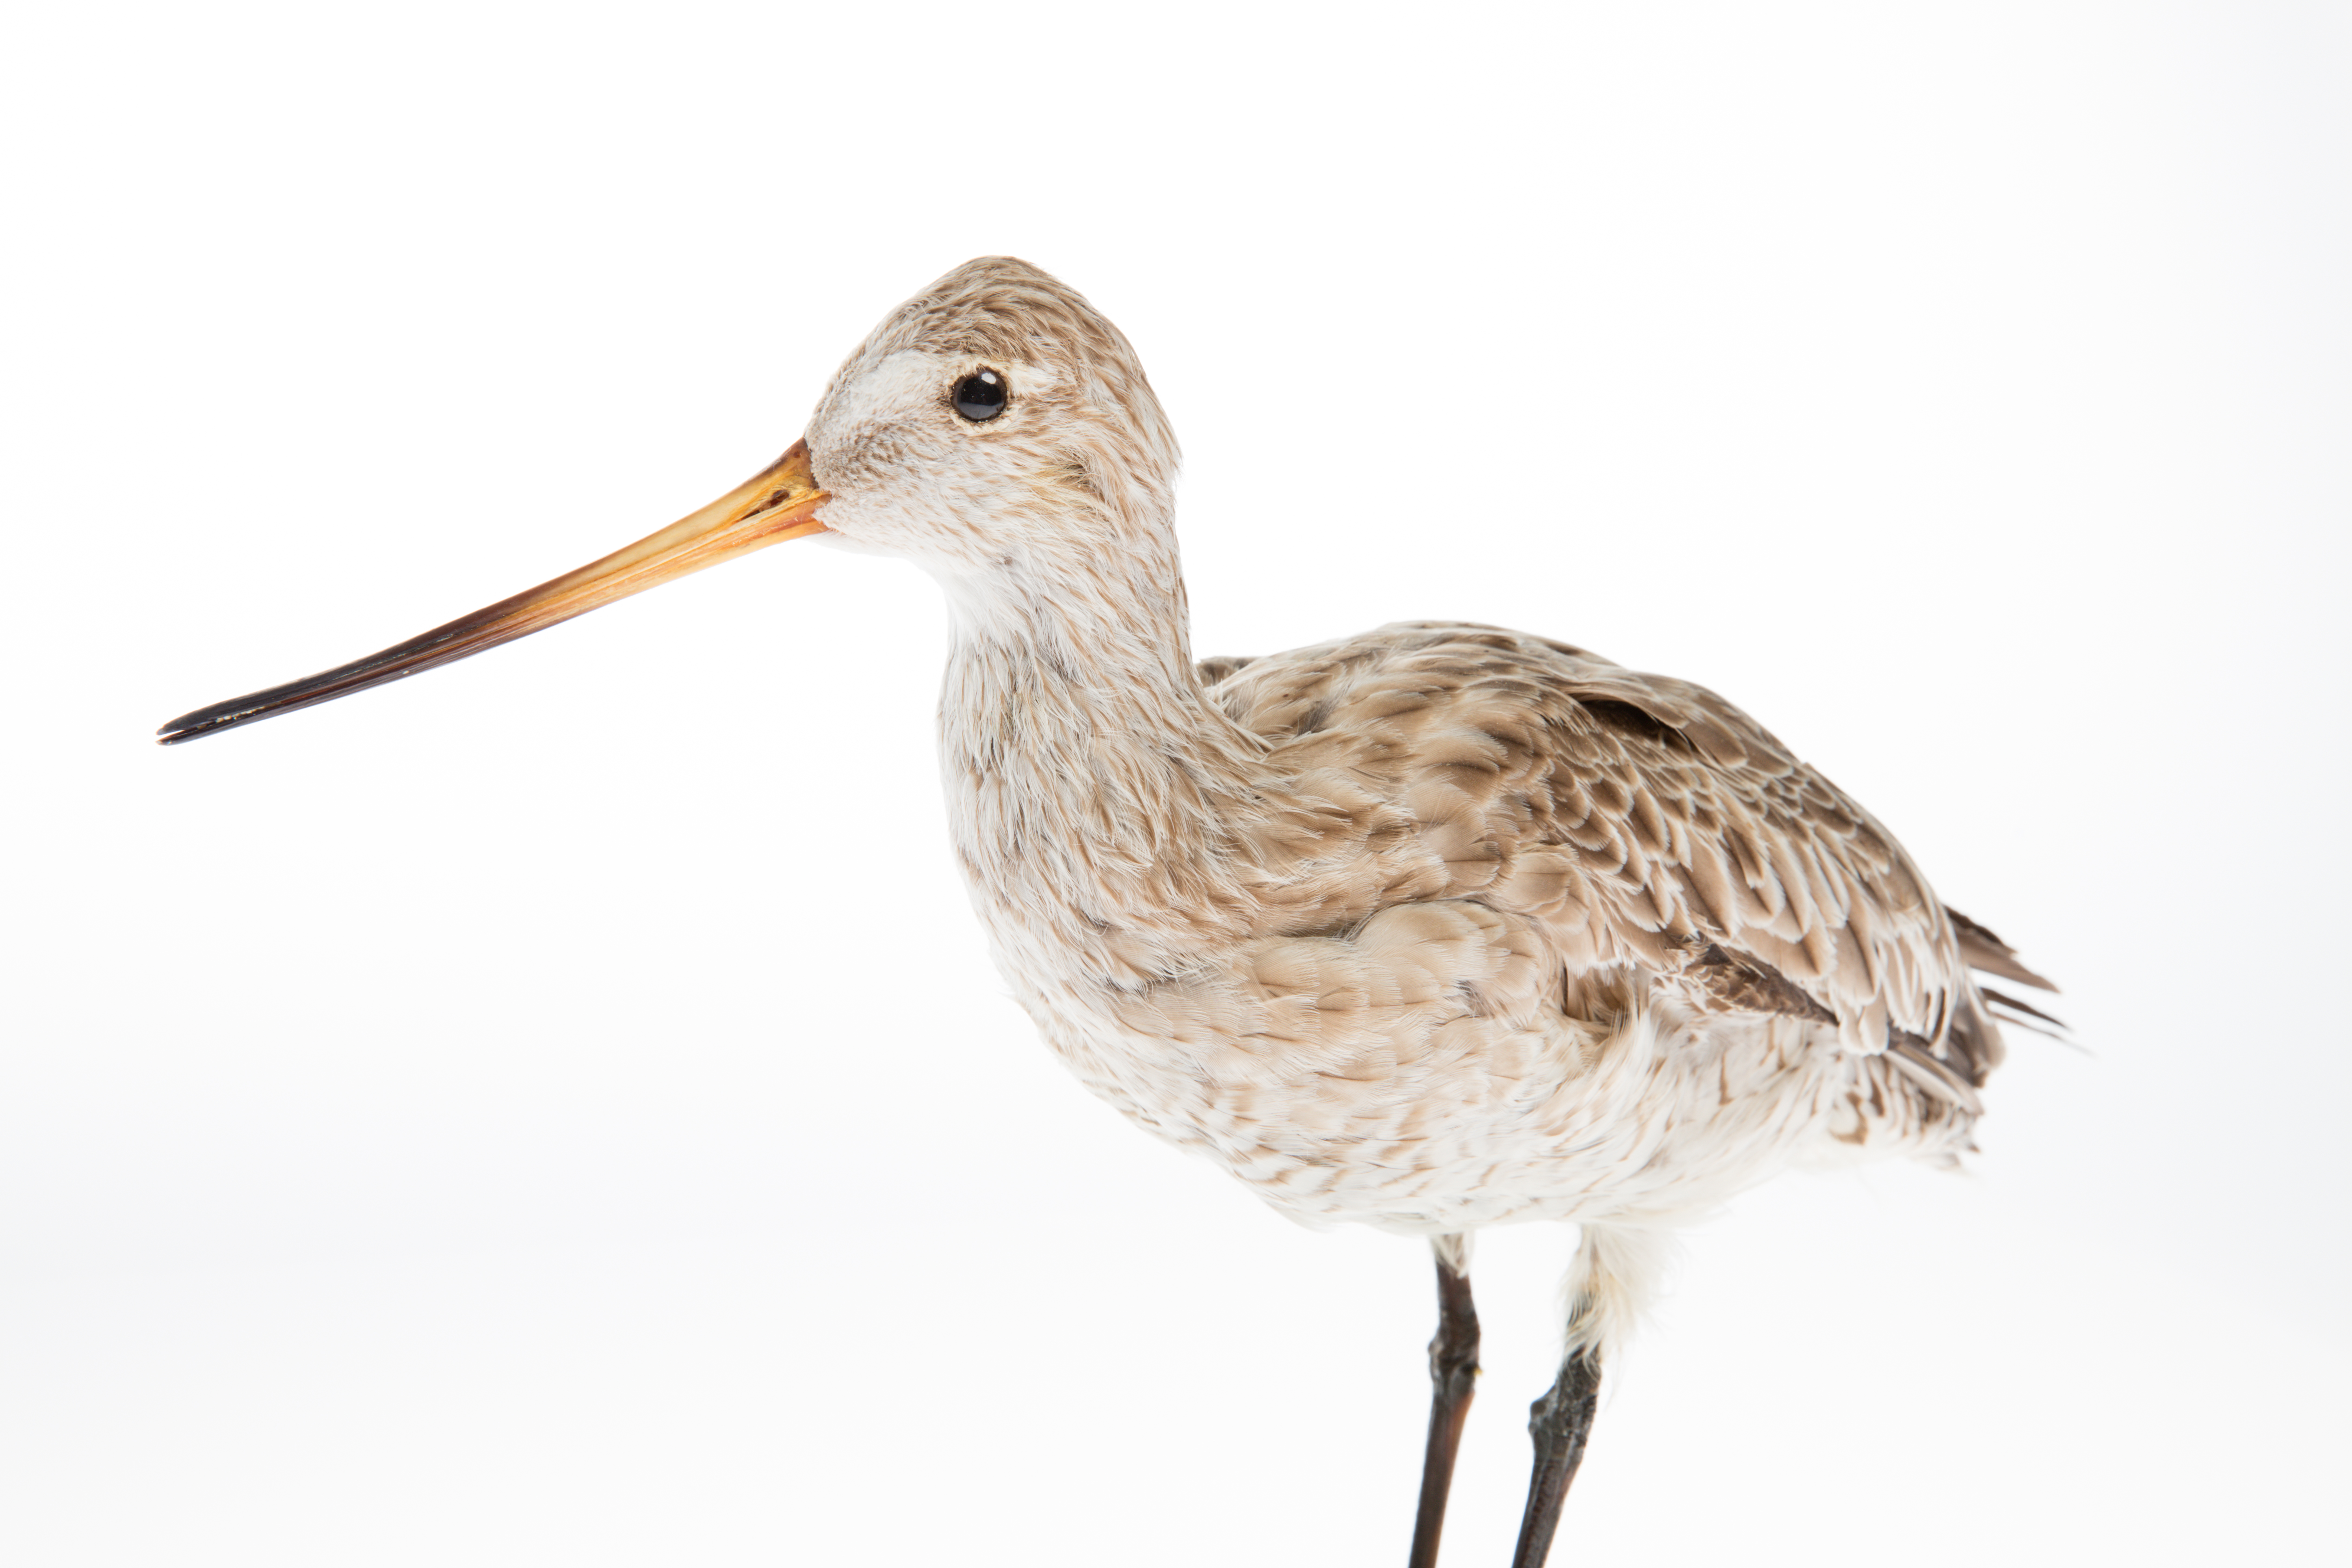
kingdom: Animalia
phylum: Chordata
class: Aves
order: Charadriiformes
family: Scolopacidae
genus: Limosa
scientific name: Limosa lapponica
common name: Bar-tailed godwit
